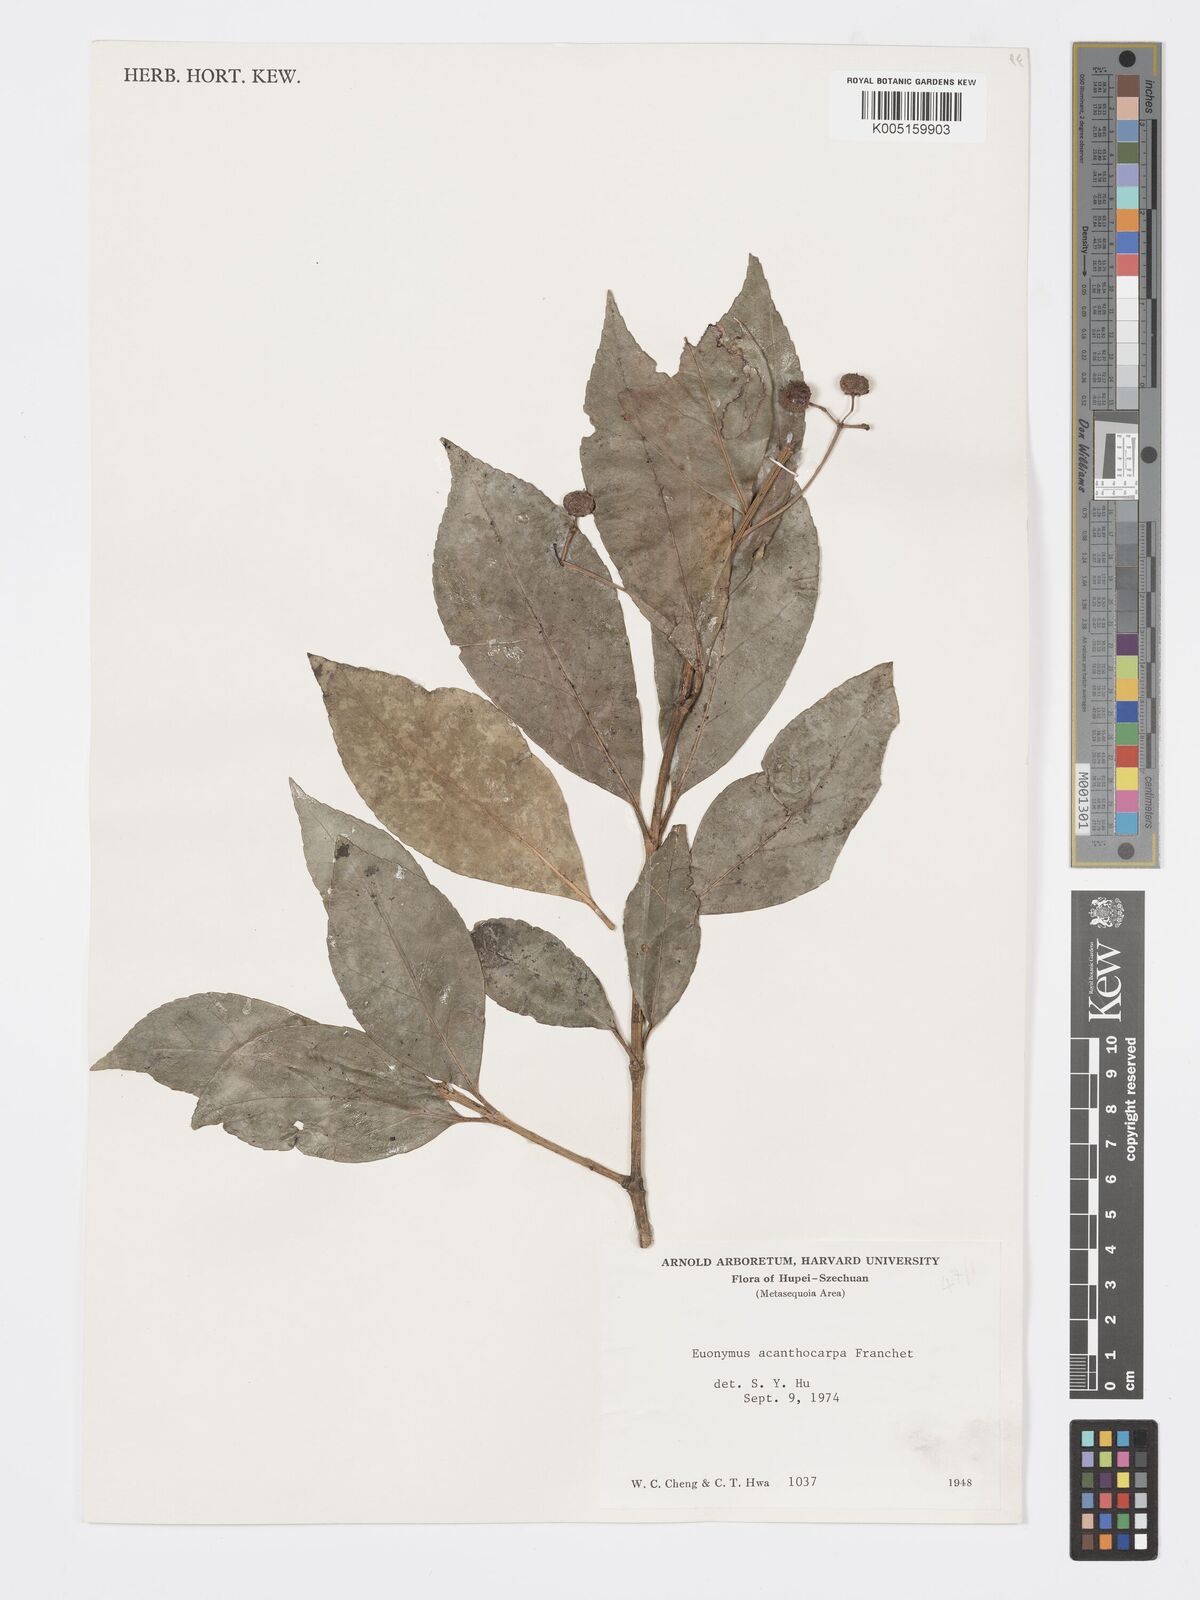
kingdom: Plantae
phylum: Tracheophyta
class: Magnoliopsida
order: Celastrales
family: Celastraceae
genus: Euonymus
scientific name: Euonymus acanthocarpus
